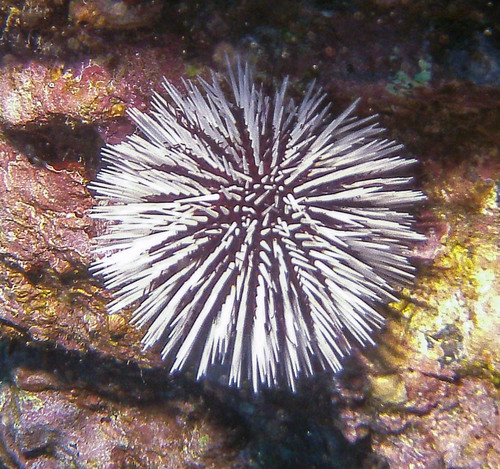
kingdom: Animalia
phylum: Echinodermata
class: Echinoidea
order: Camarodonta
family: Toxopneustidae
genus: Sphaerechinus
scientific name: Sphaerechinus granularis
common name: Violet sea urchin
